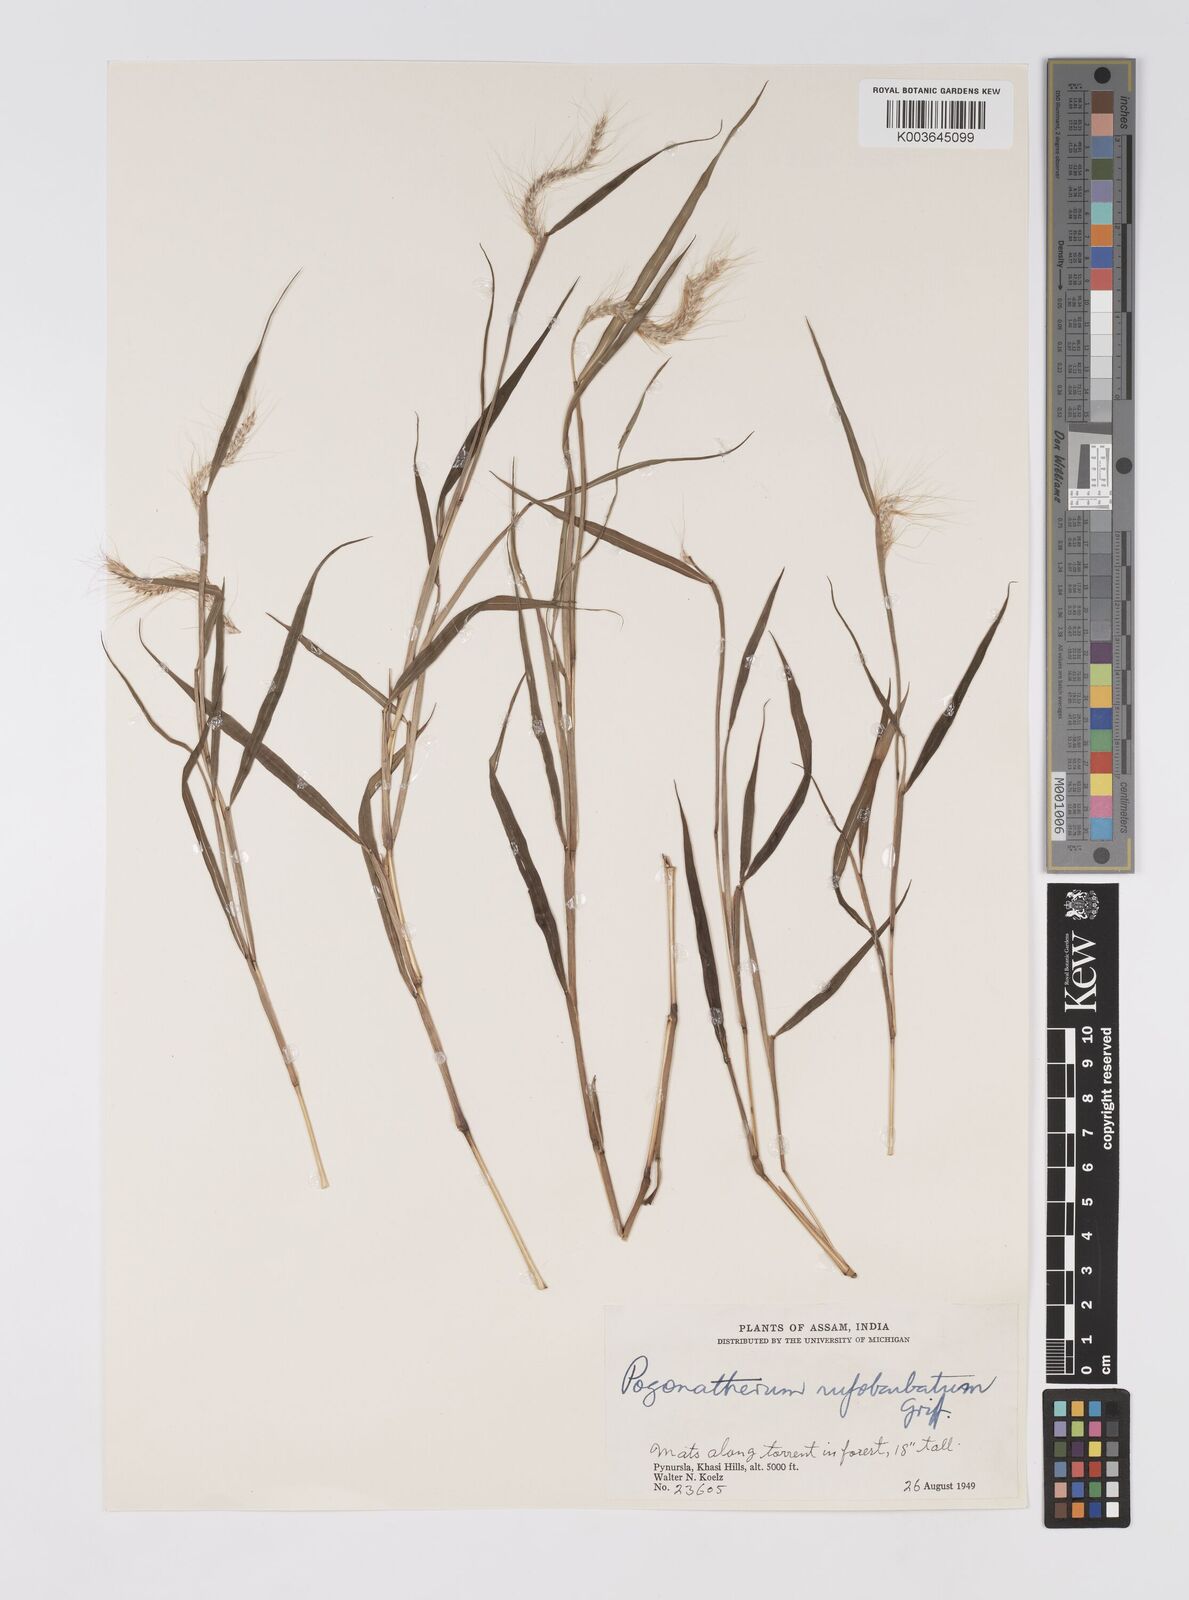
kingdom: Plantae
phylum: Tracheophyta
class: Liliopsida
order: Poales
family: Poaceae
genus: Pogonatherum
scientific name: Pogonatherum rufobarbatum
